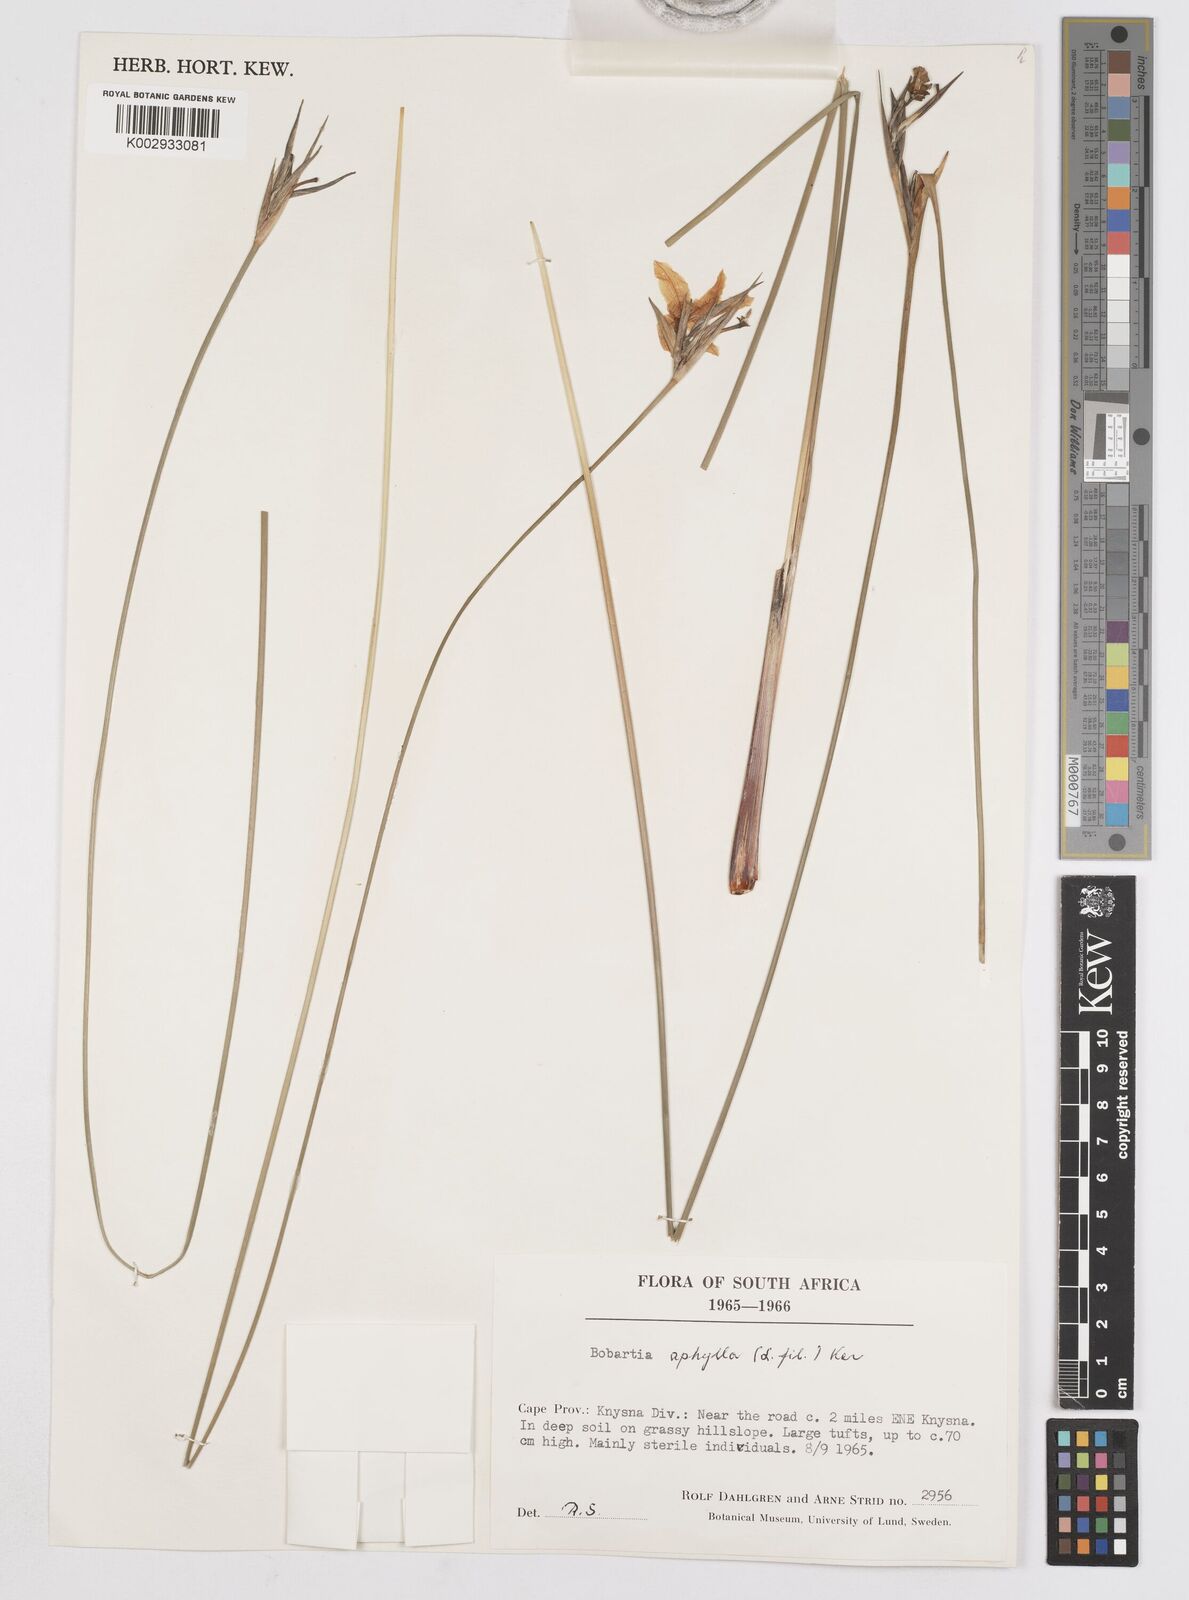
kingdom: Plantae
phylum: Tracheophyta
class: Liliopsida
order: Asparagales
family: Iridaceae
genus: Bobartia
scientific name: Bobartia aphylla
